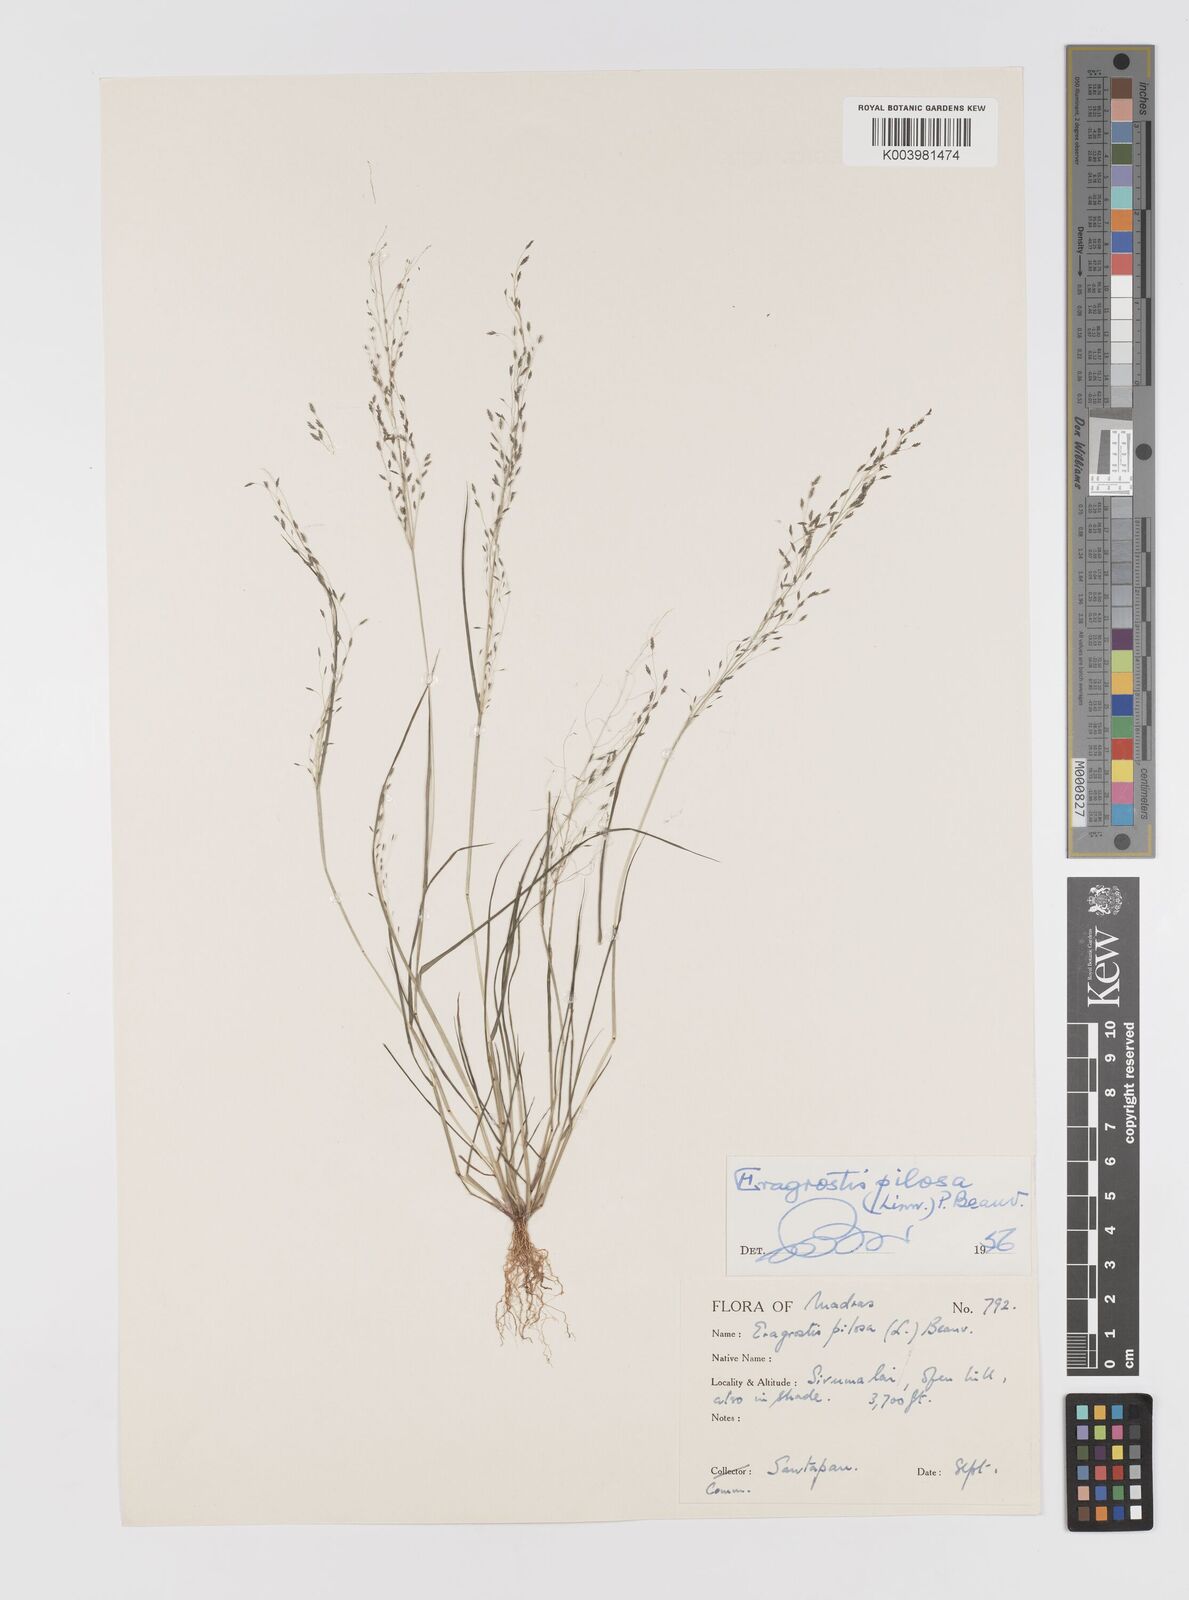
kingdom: Plantae
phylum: Tracheophyta
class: Liliopsida
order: Poales
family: Poaceae
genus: Eragrostis
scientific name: Eragrostis pilosa
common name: Indian lovegrass
